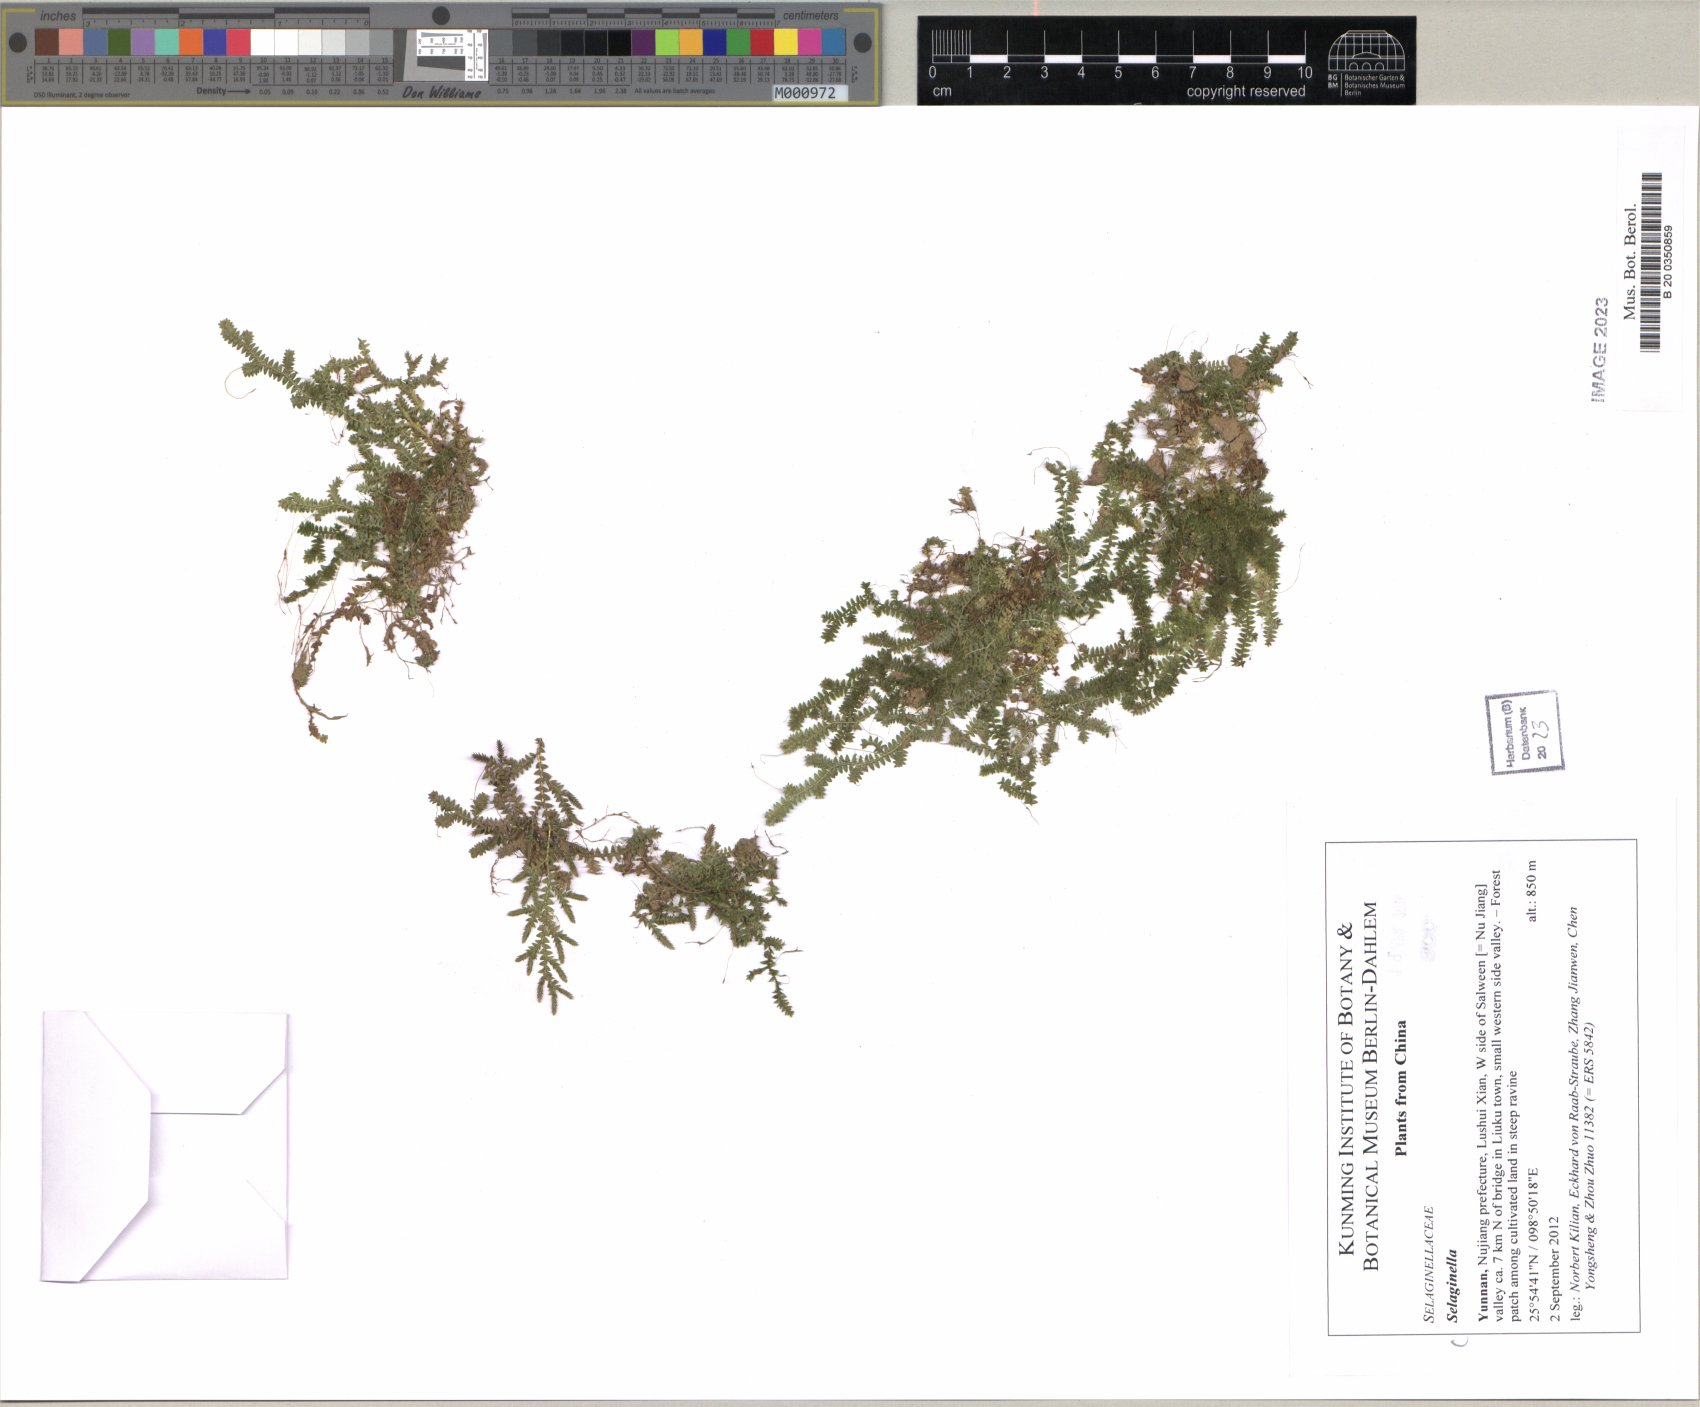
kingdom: Plantae
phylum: Tracheophyta
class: Lycopodiopsida
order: Selaginellales
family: Selaginellaceae
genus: Selaginella
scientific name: Selaginella
